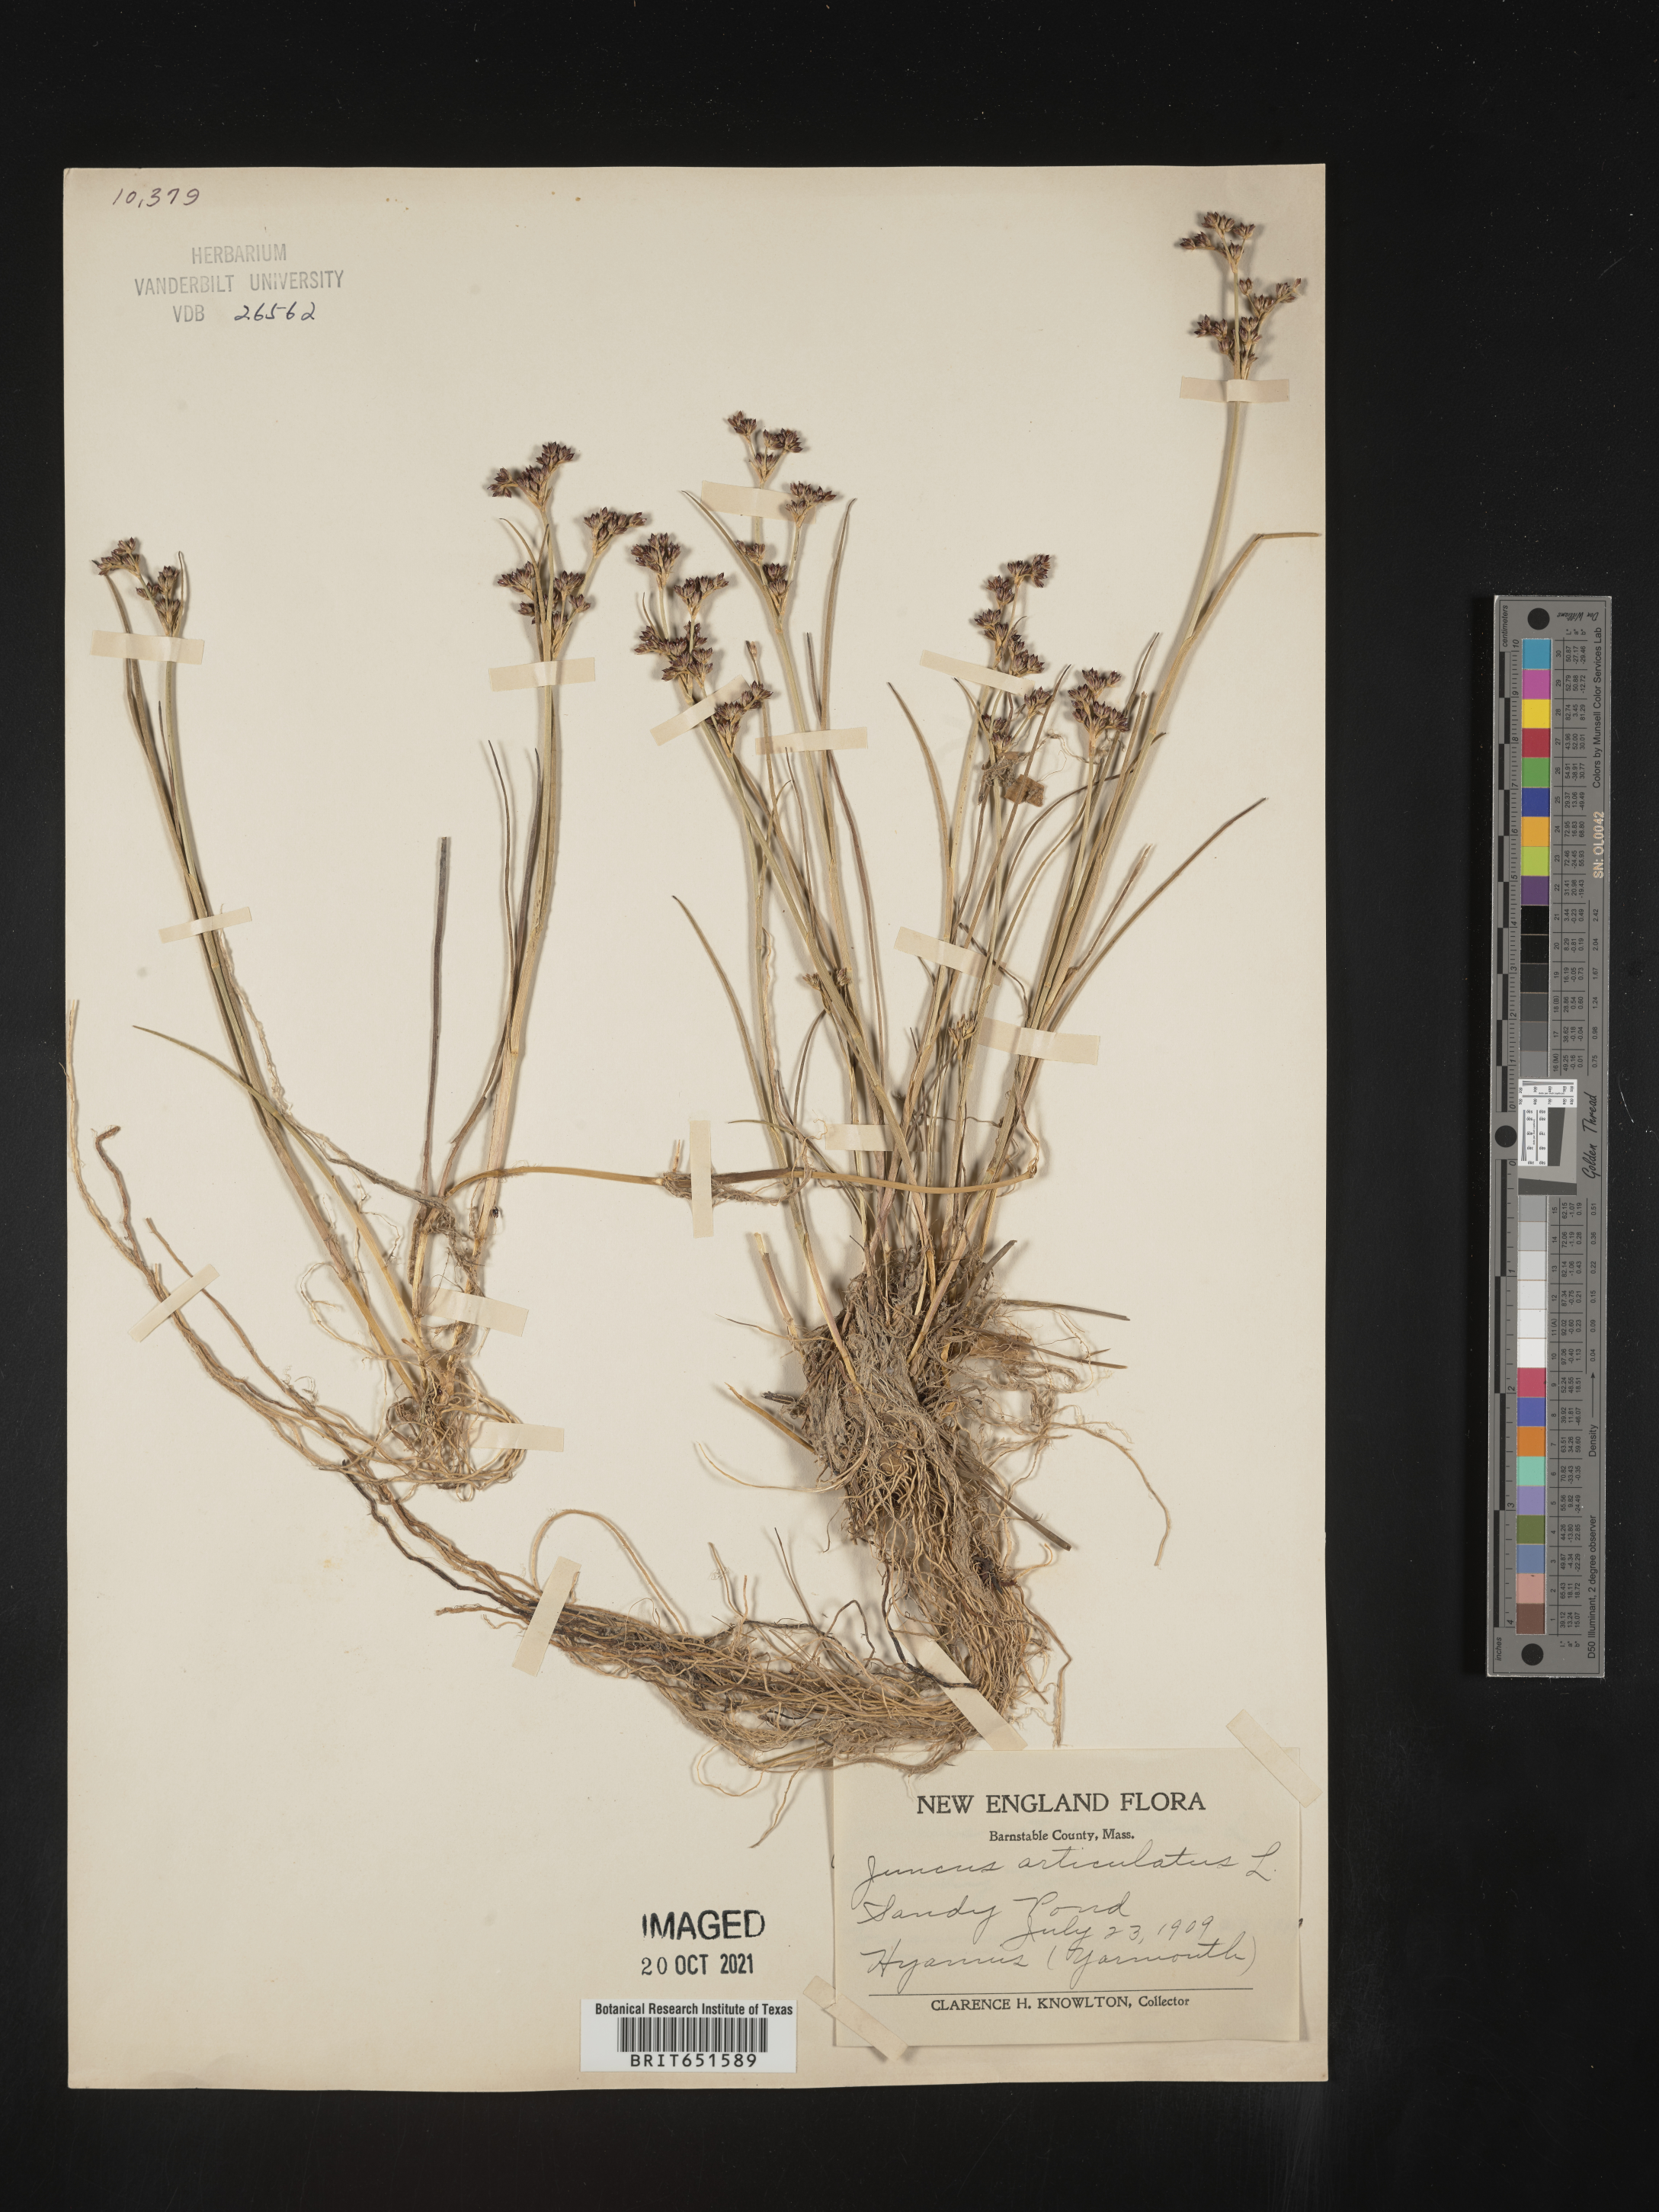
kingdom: Plantae
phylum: Tracheophyta
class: Liliopsida
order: Poales
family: Juncaceae
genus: Juncus
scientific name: Juncus articulatus
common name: Jointed rush
